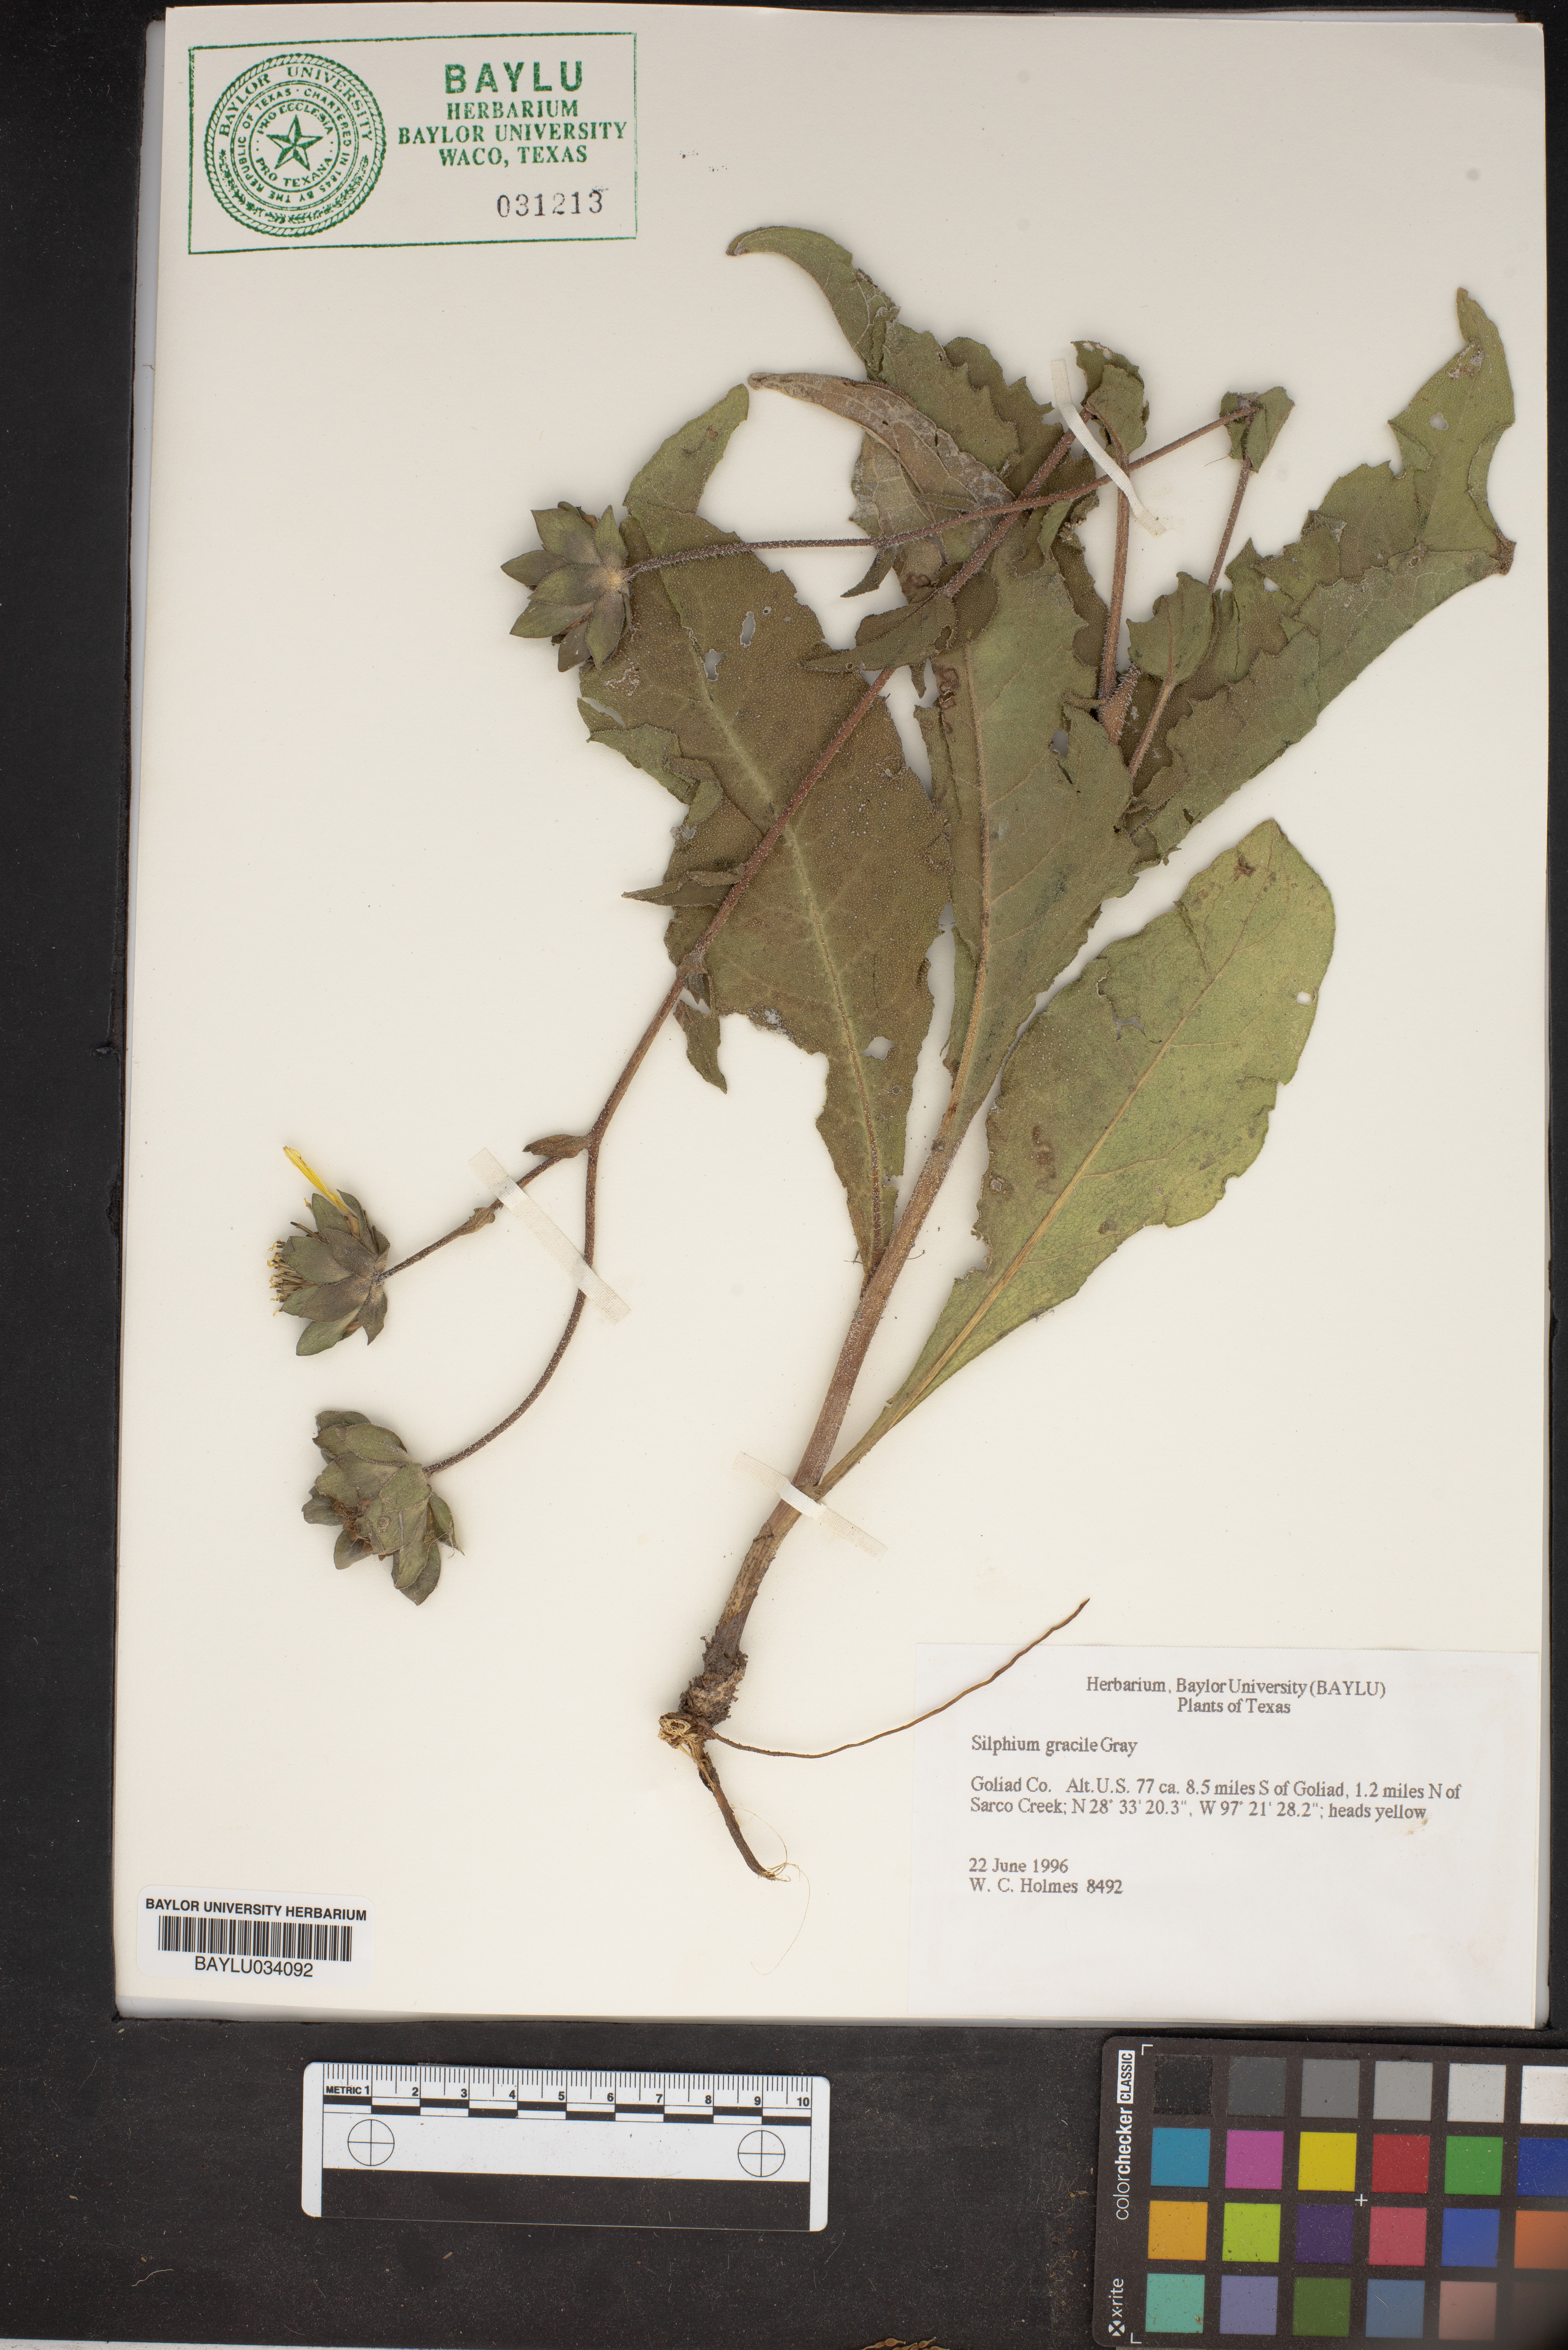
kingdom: Plantae
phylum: Tracheophyta
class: Magnoliopsida
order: Asterales
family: Asteraceae
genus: Silphium
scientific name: Silphium radula
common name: Roughleaf rosinweed
